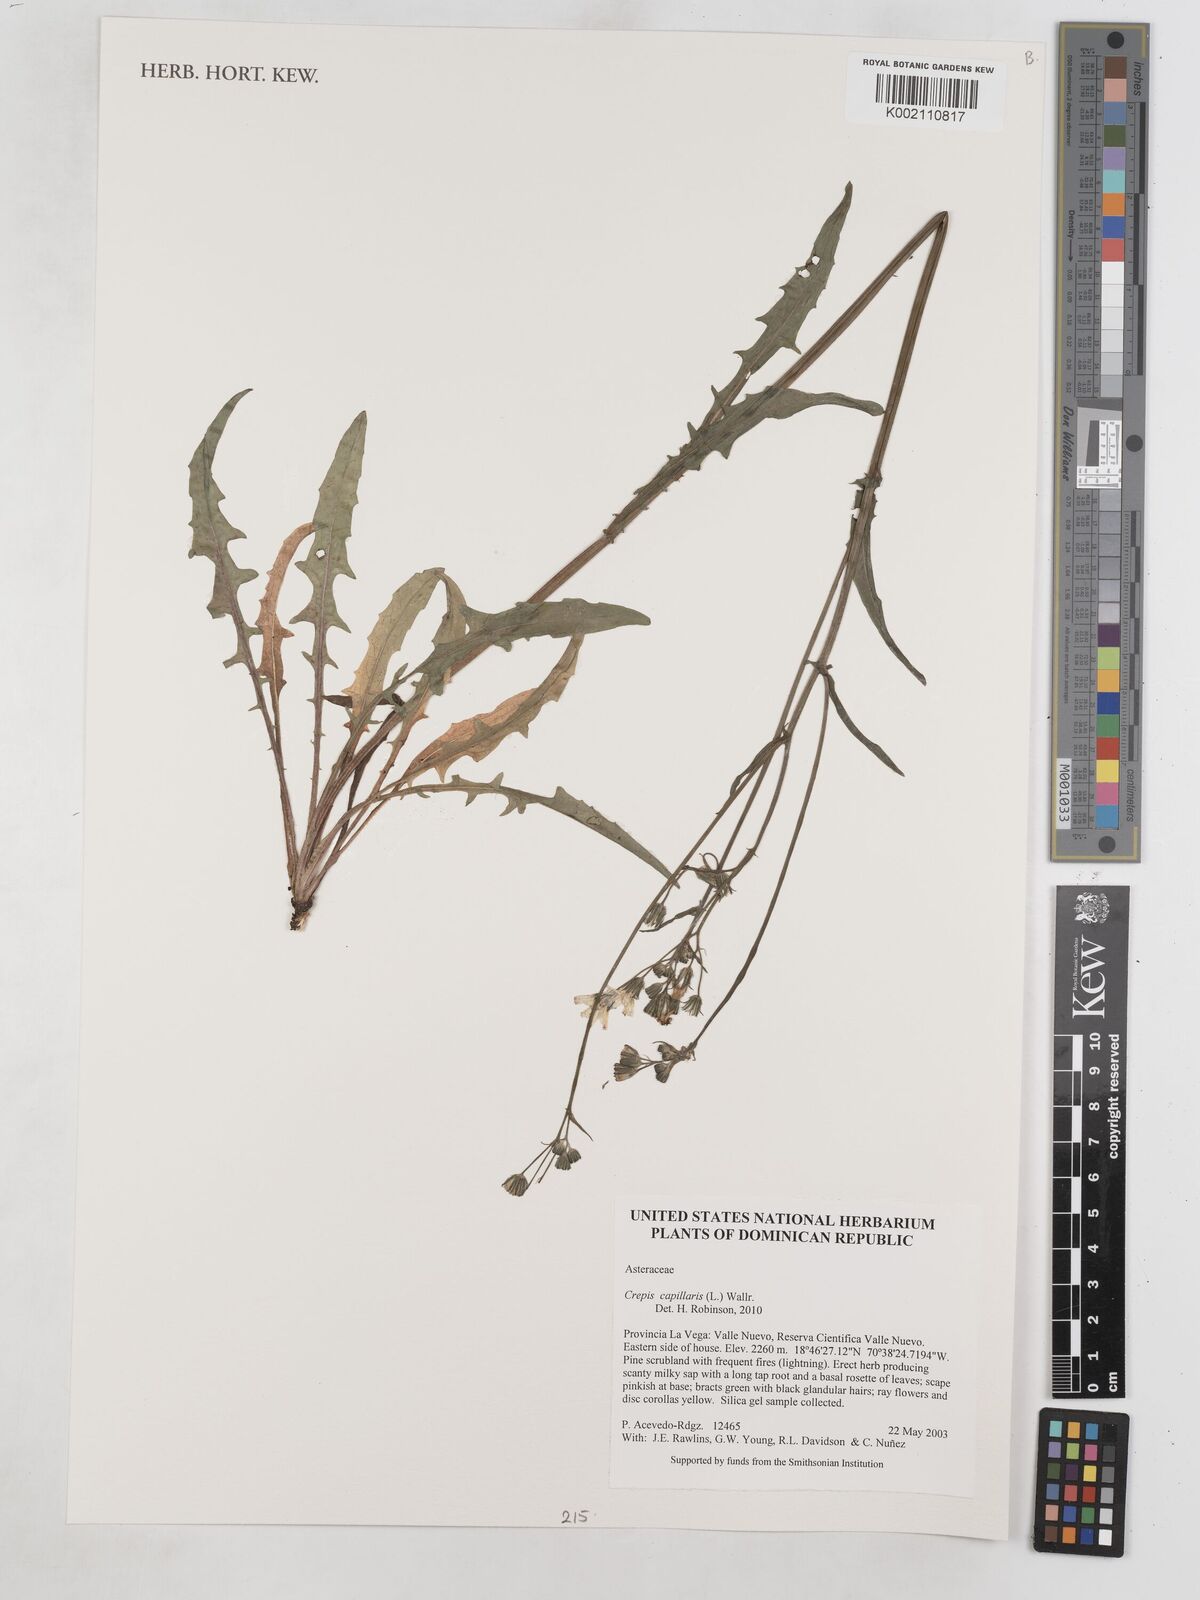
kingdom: Plantae
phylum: Tracheophyta
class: Magnoliopsida
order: Asterales
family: Asteraceae
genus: Crepis
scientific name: Crepis capillaris
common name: Smooth hawksbeard
